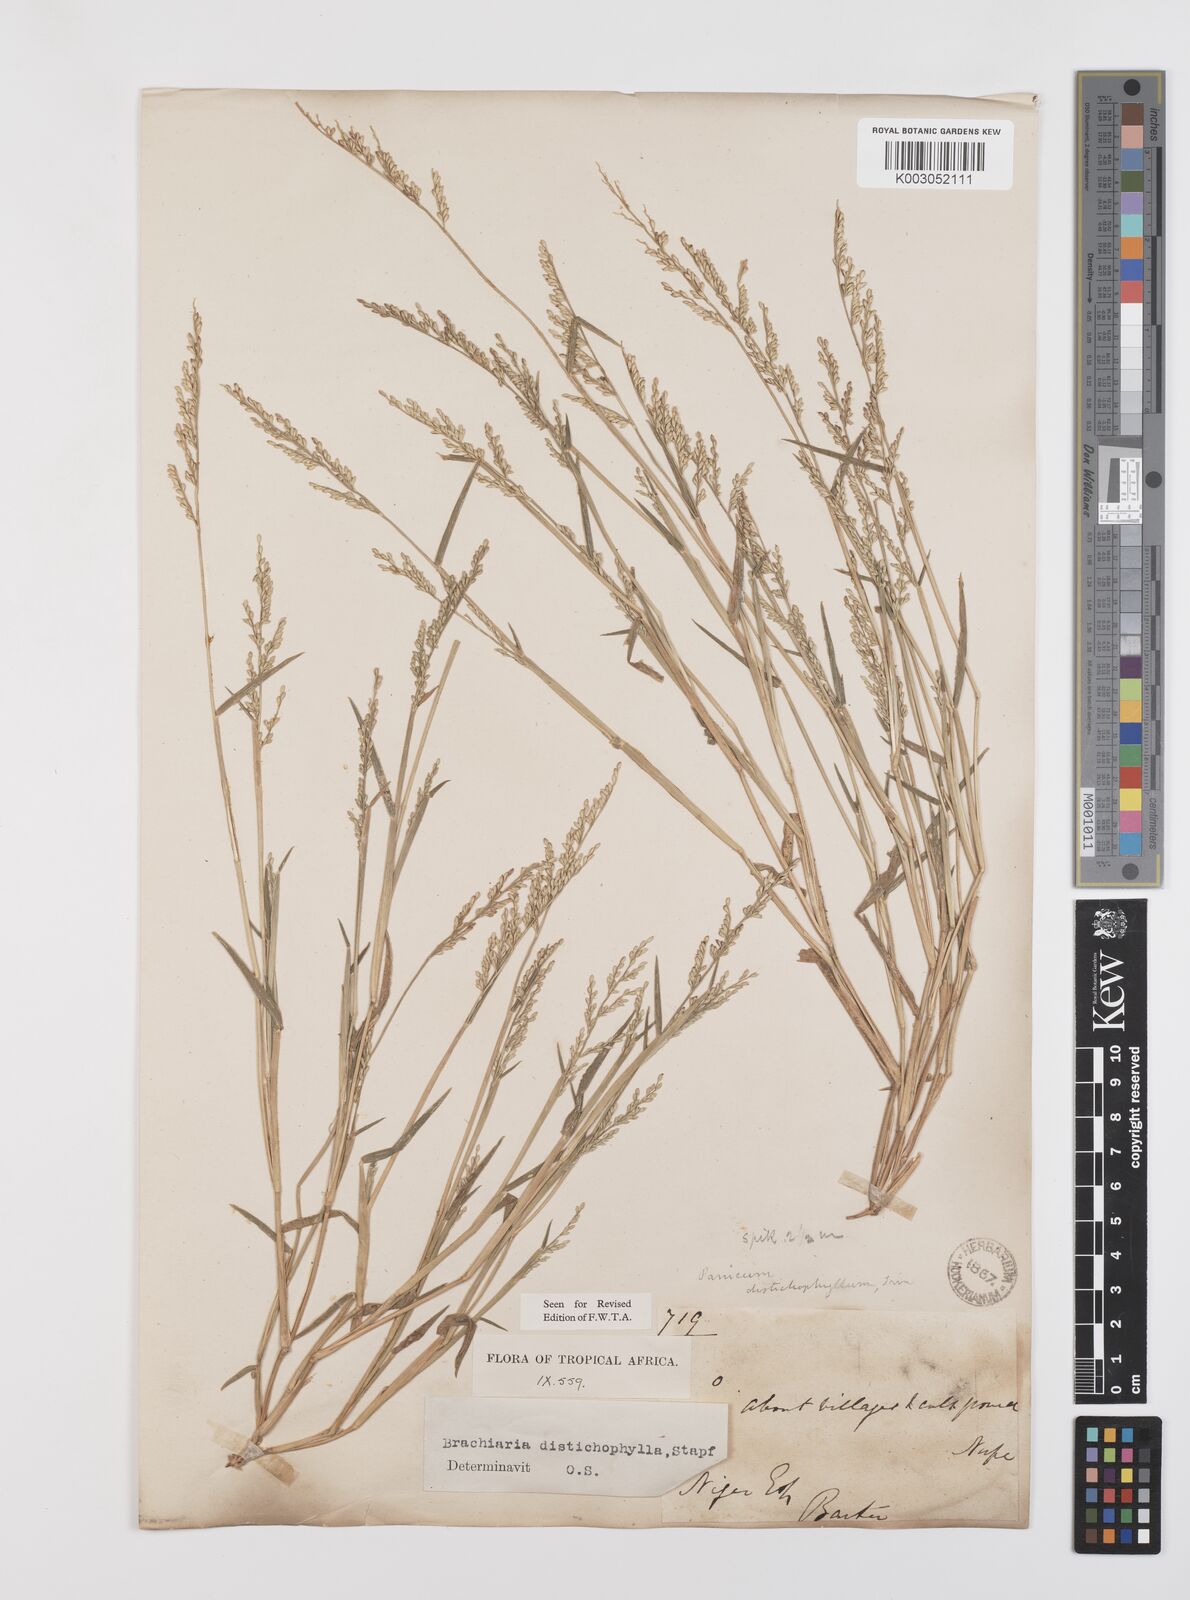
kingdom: Plantae
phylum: Tracheophyta
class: Liliopsida
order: Poales
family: Poaceae
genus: Urochloa
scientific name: Urochloa villosa
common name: Hairy signalgrass
